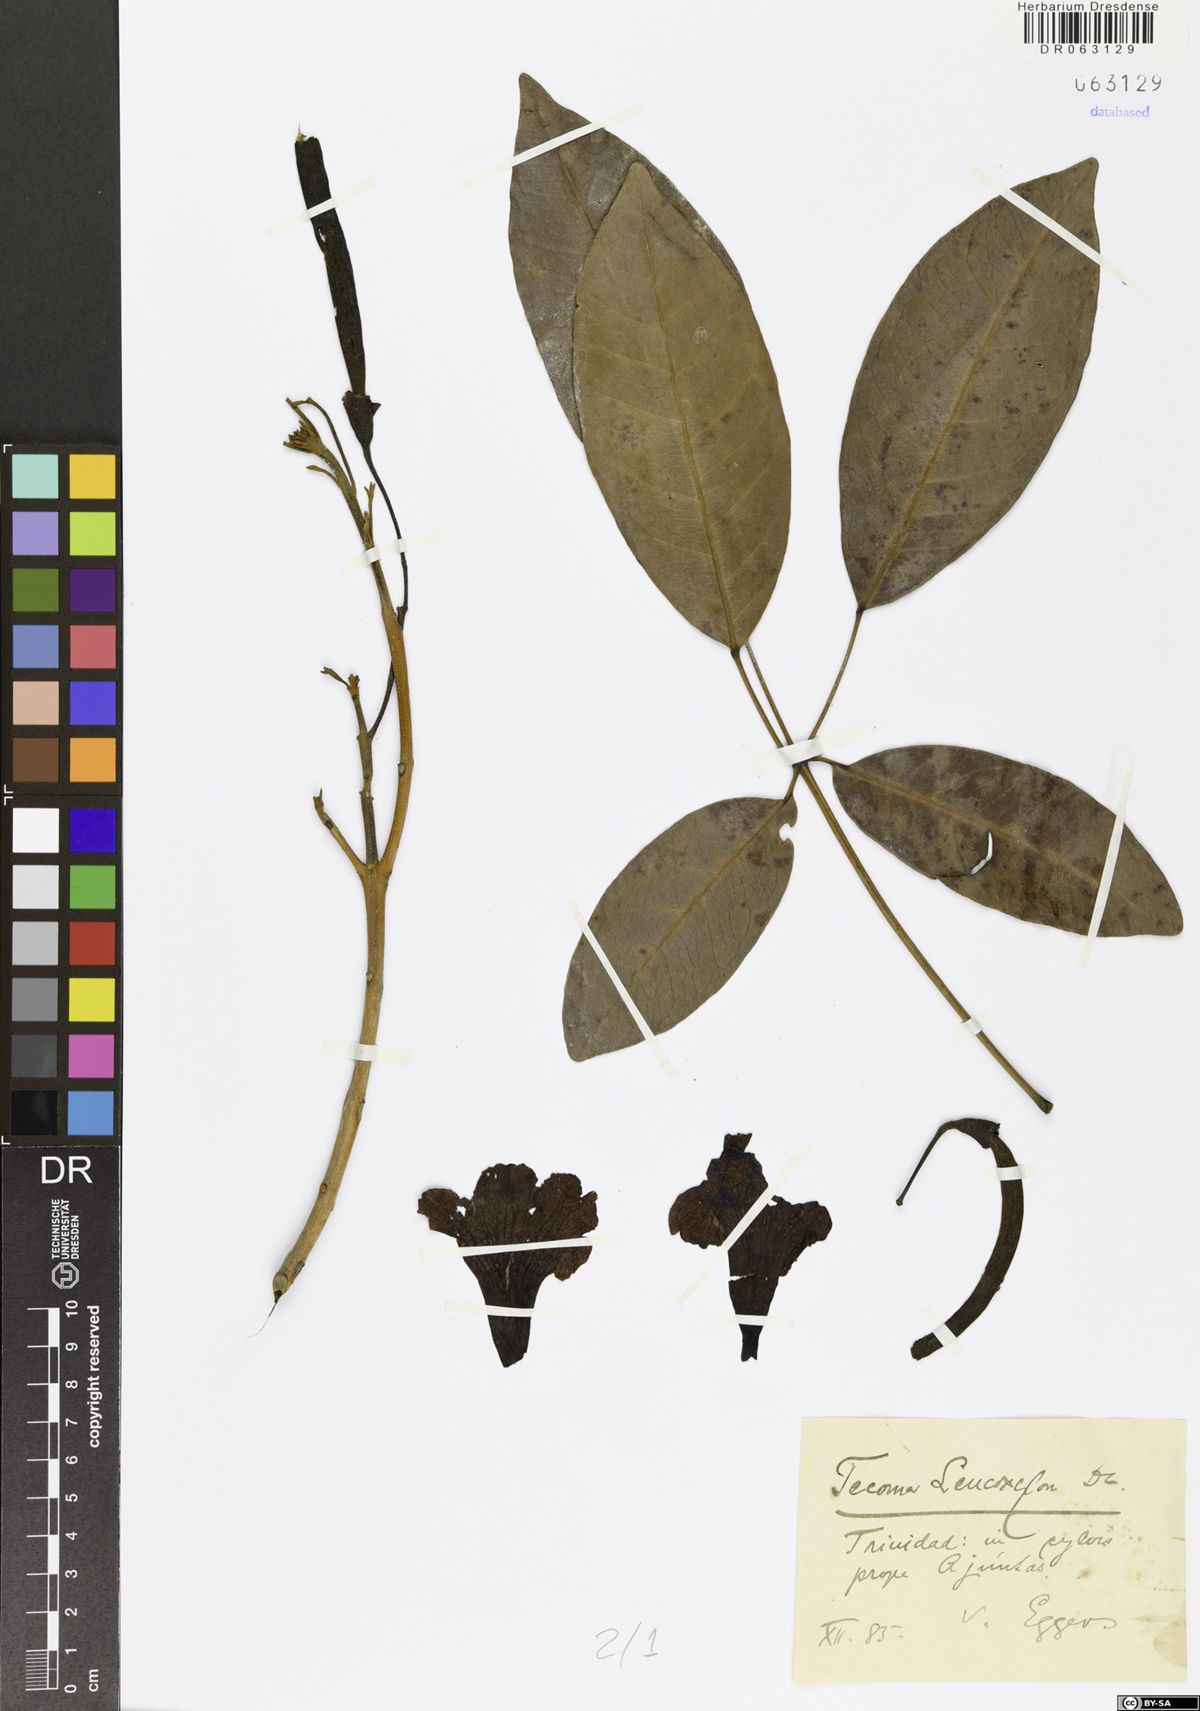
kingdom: Plantae
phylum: Tracheophyta
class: Magnoliopsida
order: Lamiales
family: Bignoniaceae
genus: Tecoma
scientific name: Tecoma leucoxylon
